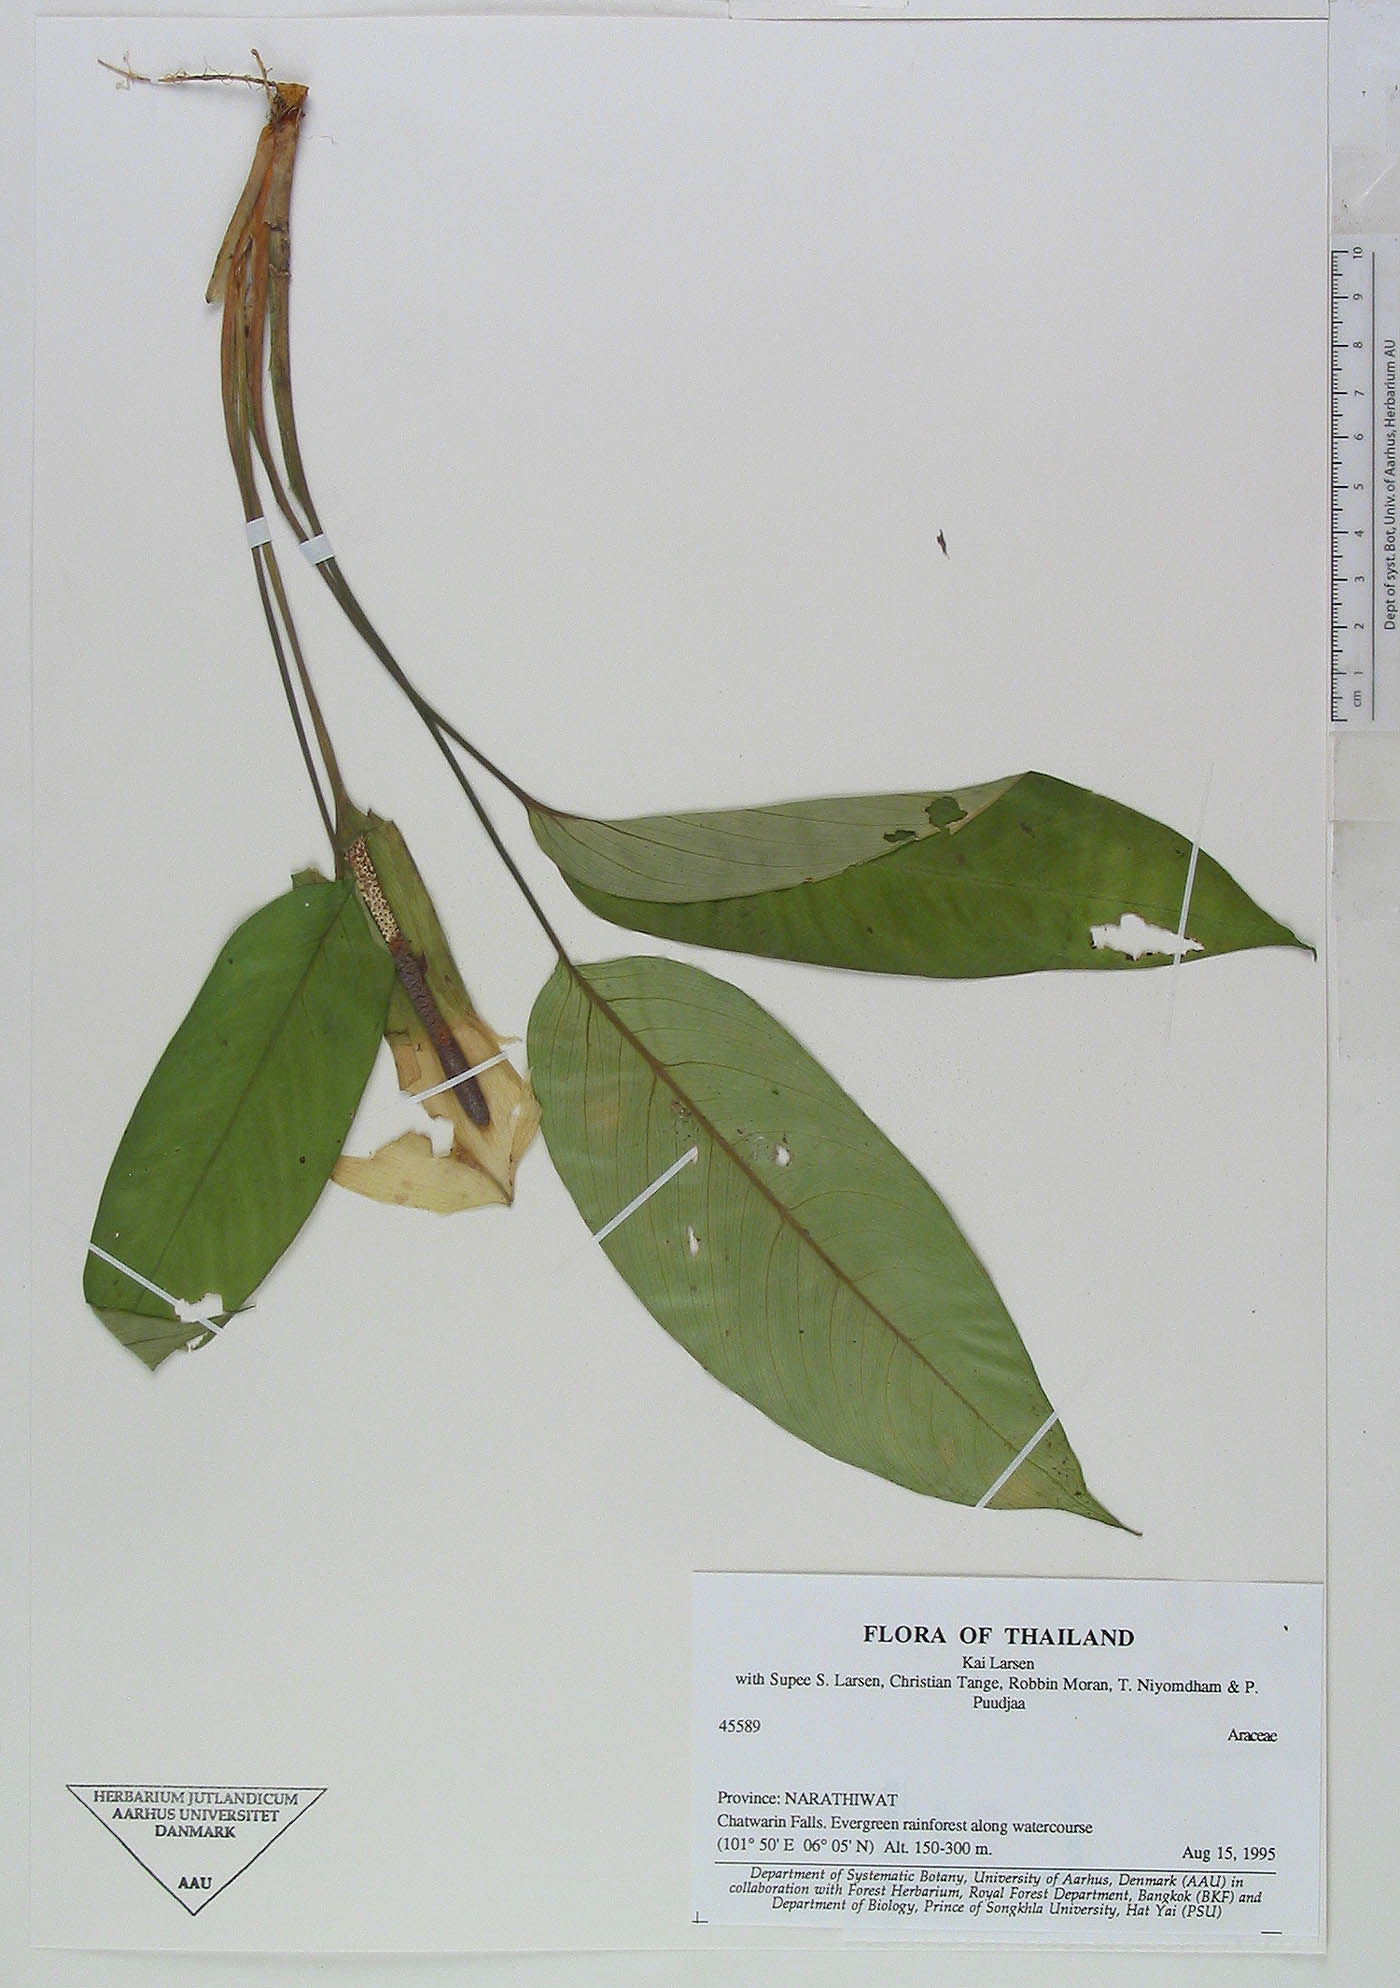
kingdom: Plantae
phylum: Tracheophyta
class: Liliopsida
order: Alismatales
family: Araceae
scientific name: Araceae
